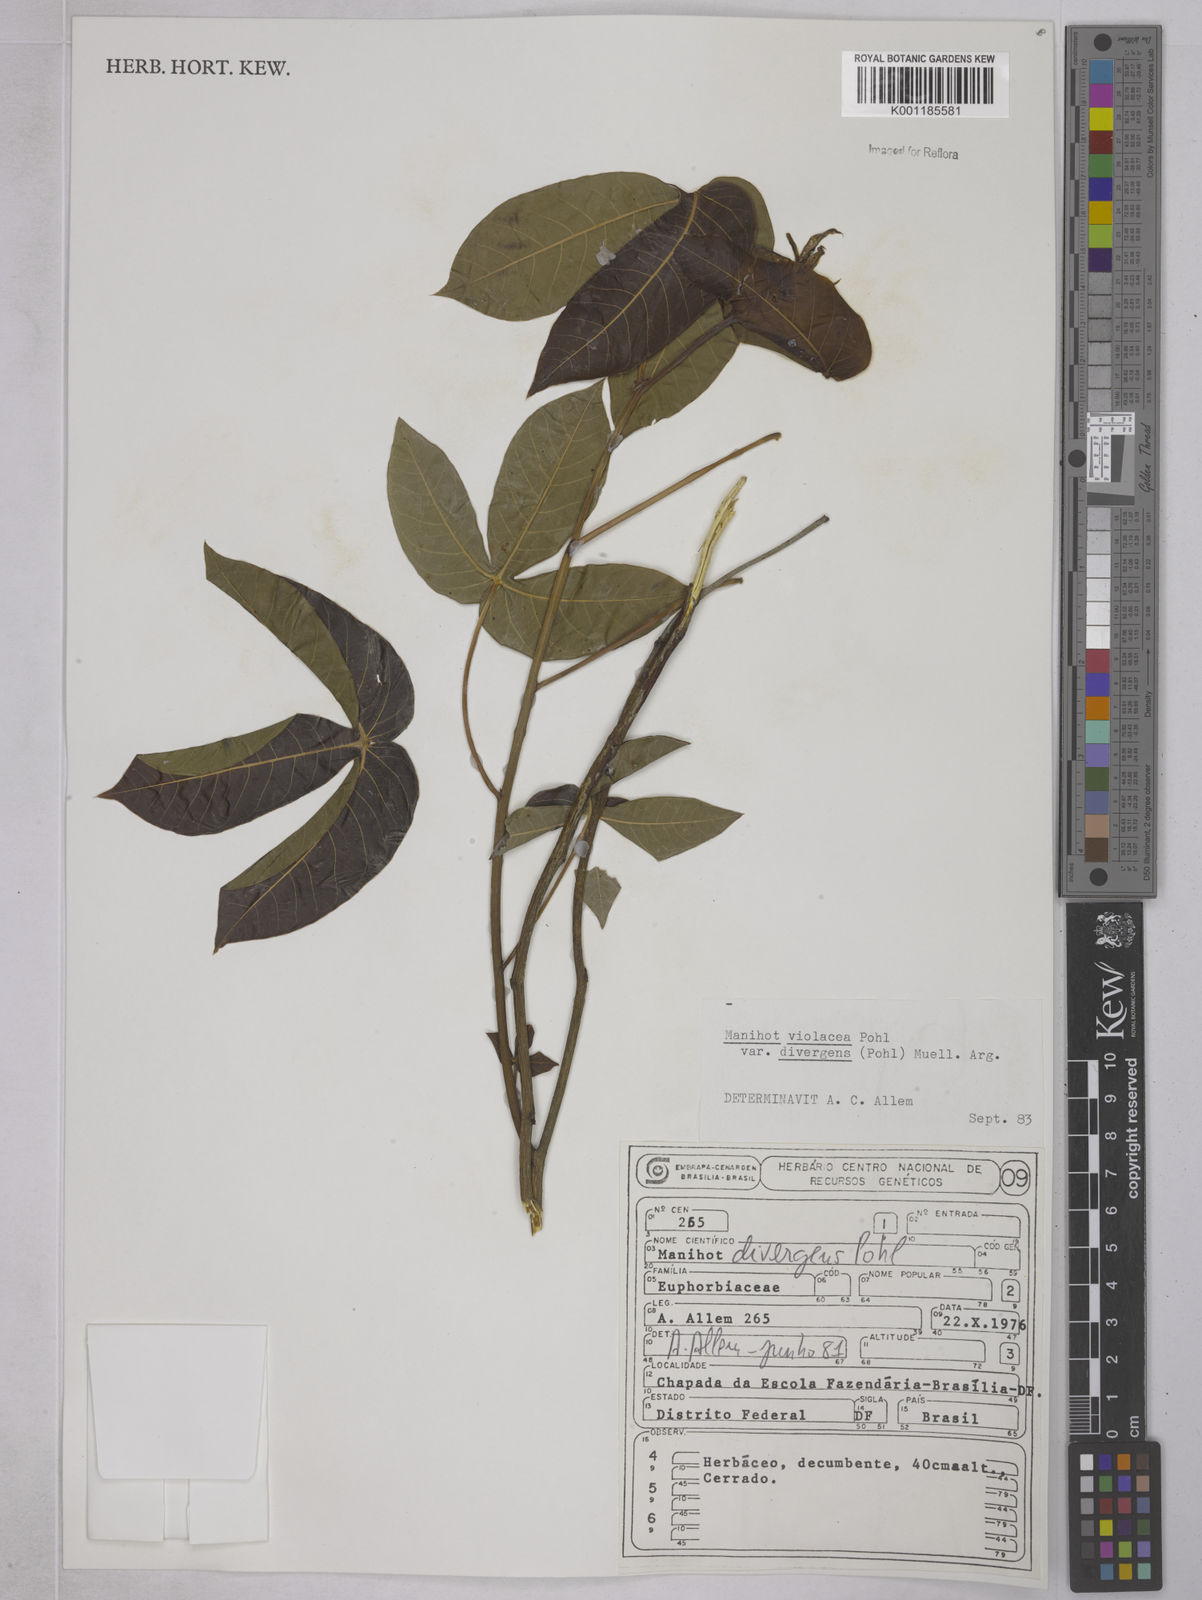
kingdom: Plantae
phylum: Tracheophyta
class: Magnoliopsida
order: Malpighiales
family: Euphorbiaceae
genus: Manihot
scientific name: Manihot divergens
